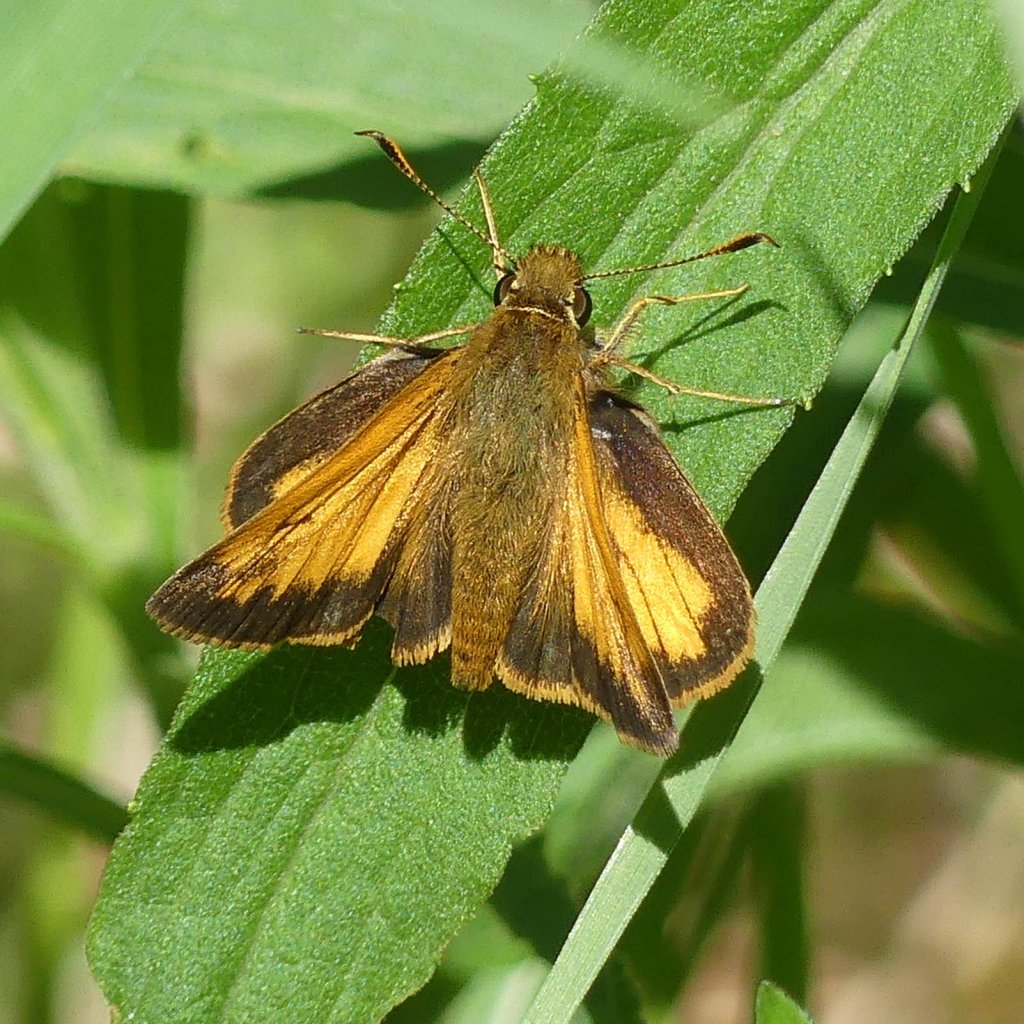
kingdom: Animalia
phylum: Arthropoda
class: Insecta
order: Lepidoptera
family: Hesperiidae
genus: Lon
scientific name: Lon hobomok
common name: Hobomok Skipper
